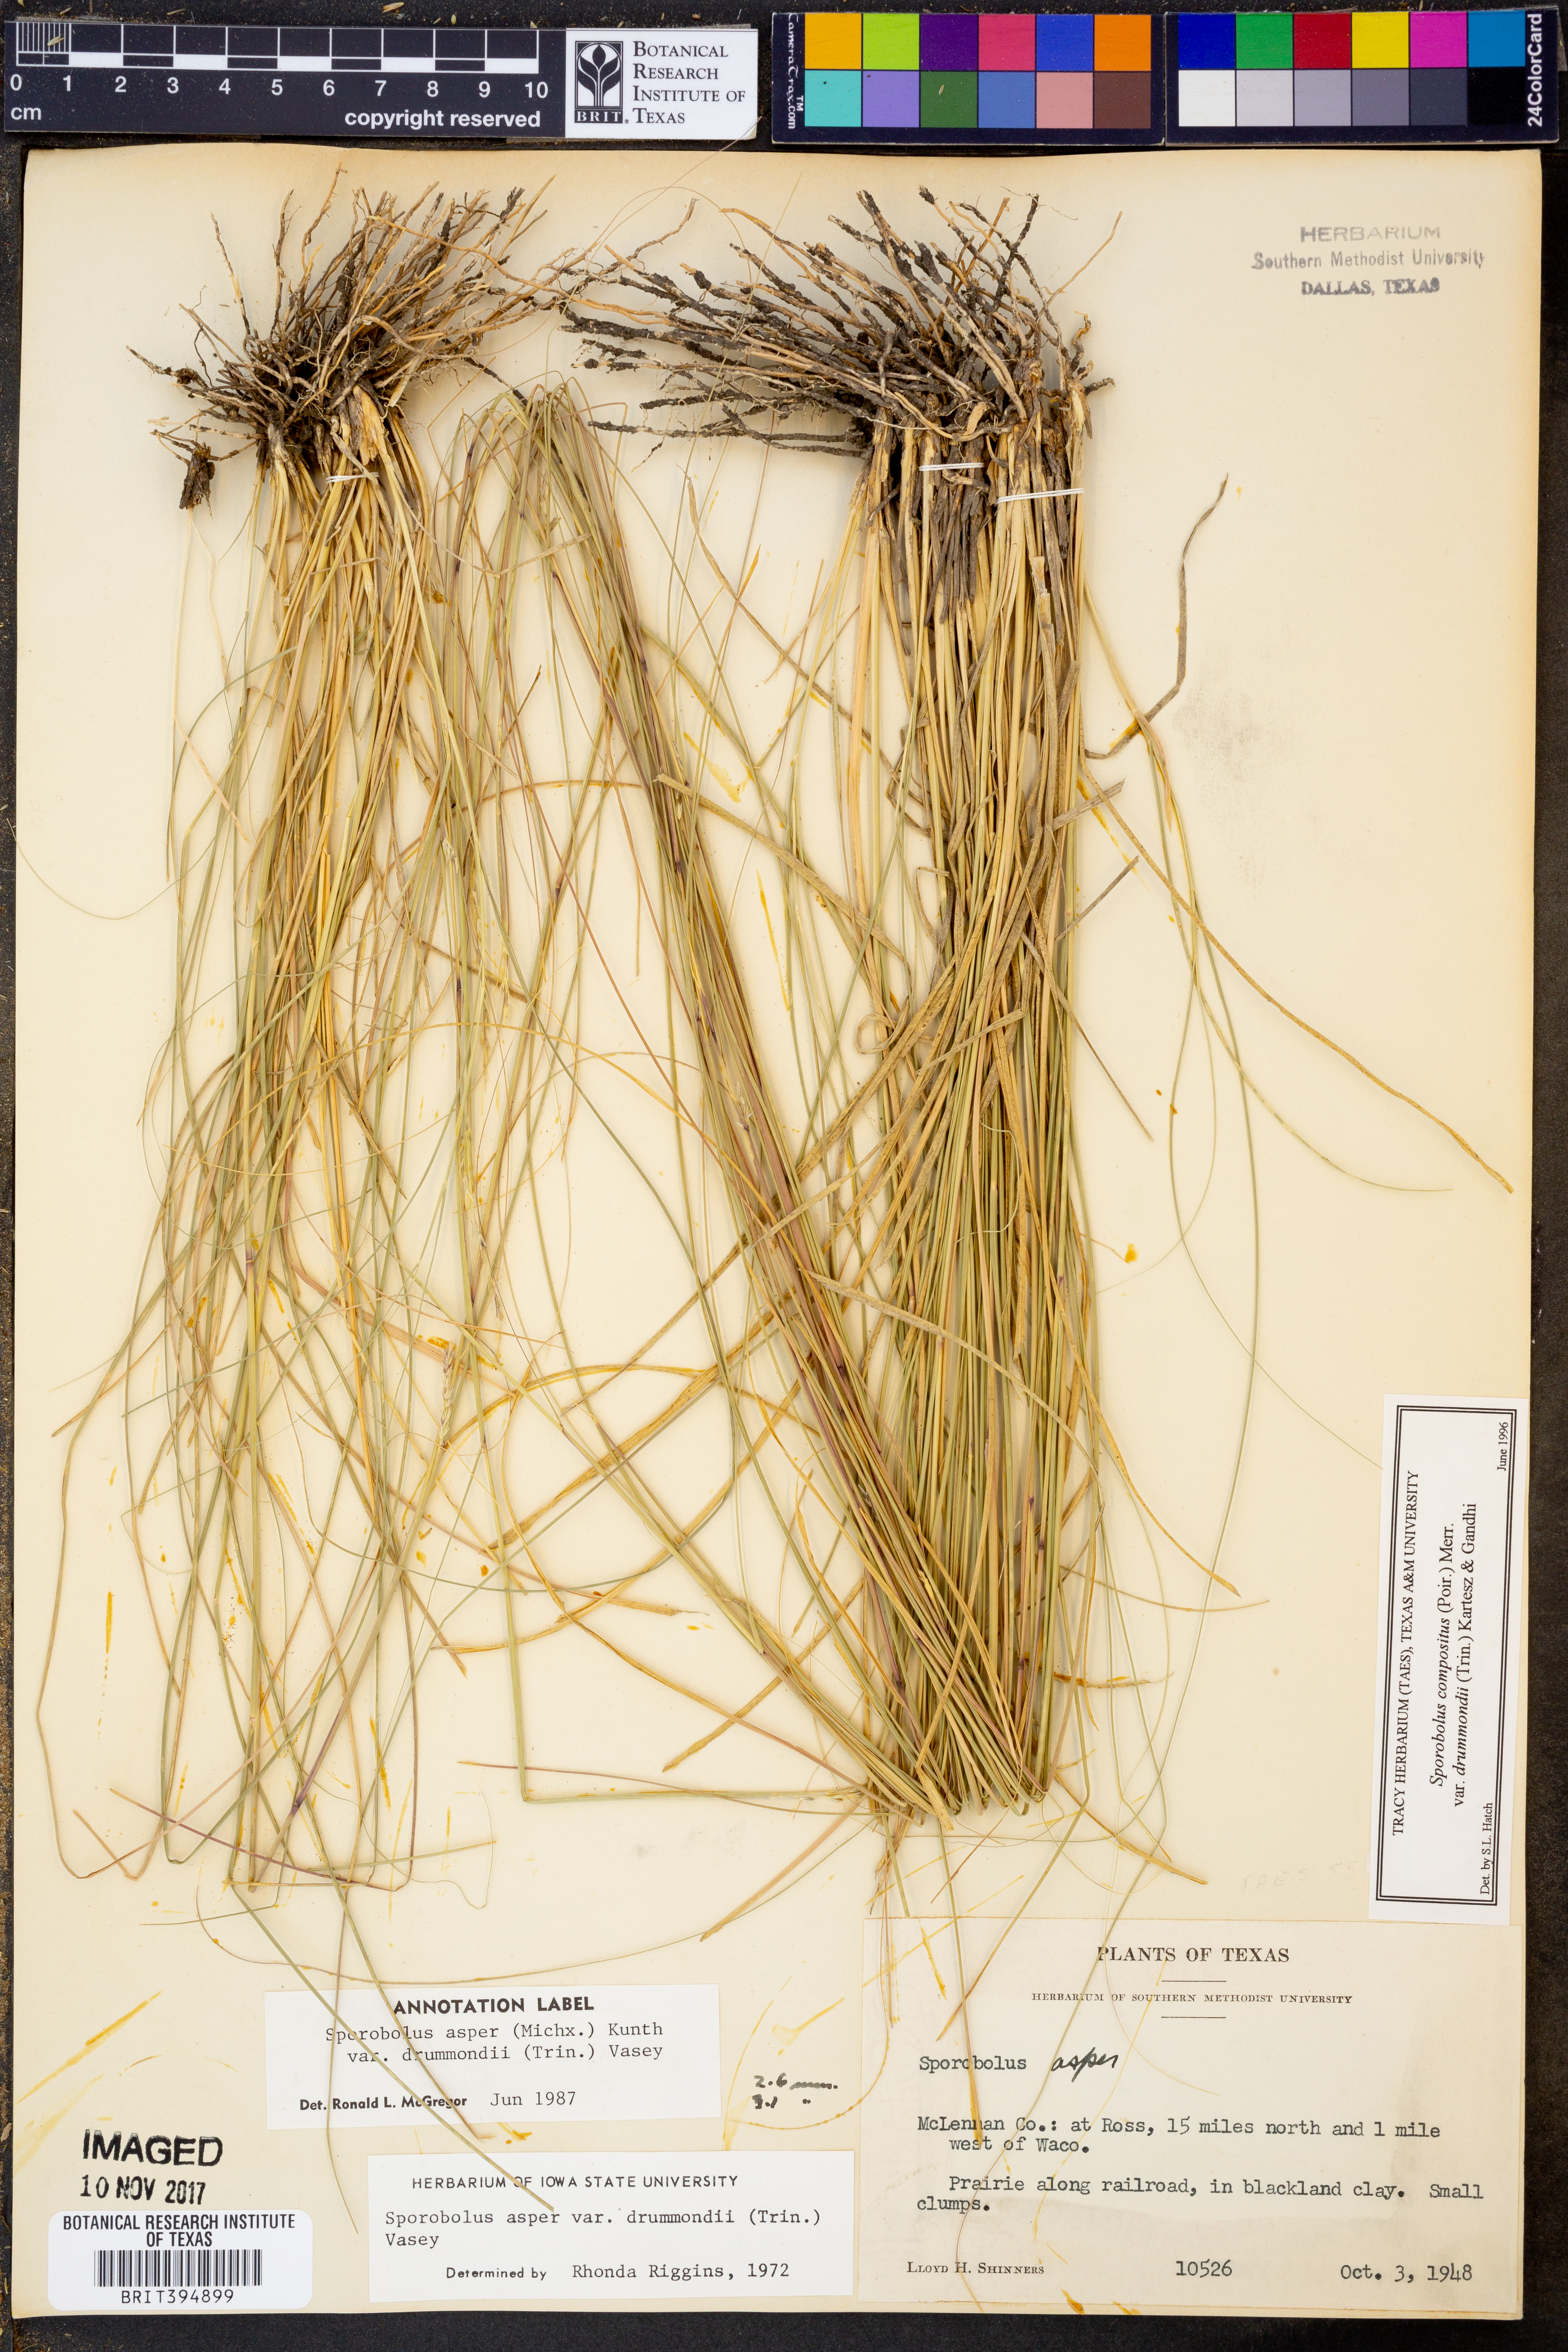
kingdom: Plantae
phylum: Tracheophyta
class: Liliopsida
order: Poales
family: Poaceae
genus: Sporobolus
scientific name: Sporobolus compositus
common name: Rough dropseed
